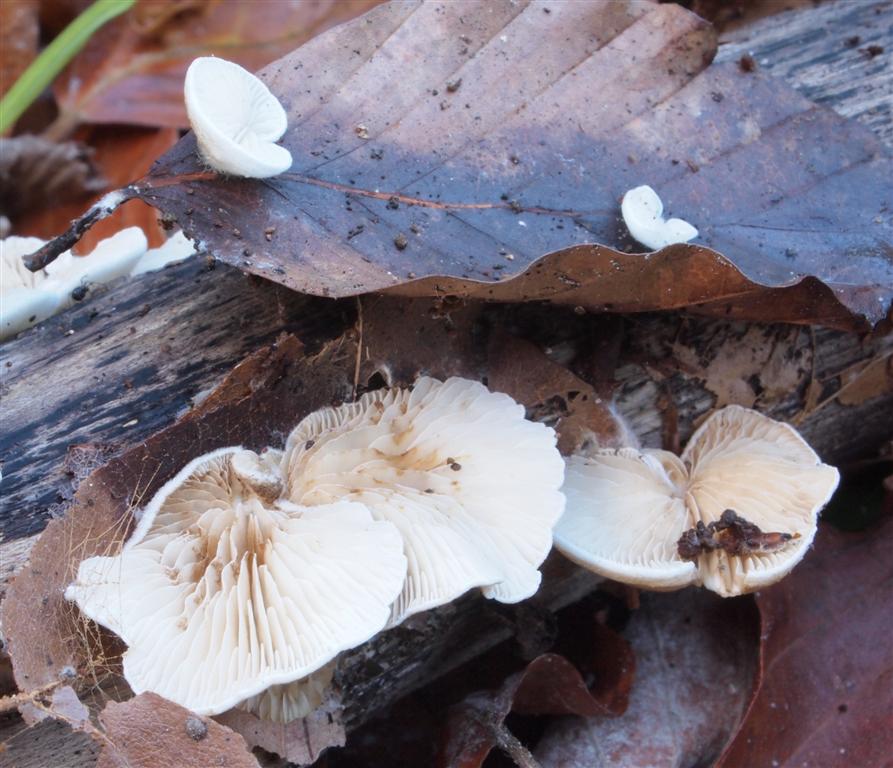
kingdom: Fungi
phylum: Basidiomycota
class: Agaricomycetes
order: Agaricales
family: Crepidotaceae
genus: Crepidotus
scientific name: Crepidotus caspari
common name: Lundells muslingesvamp
